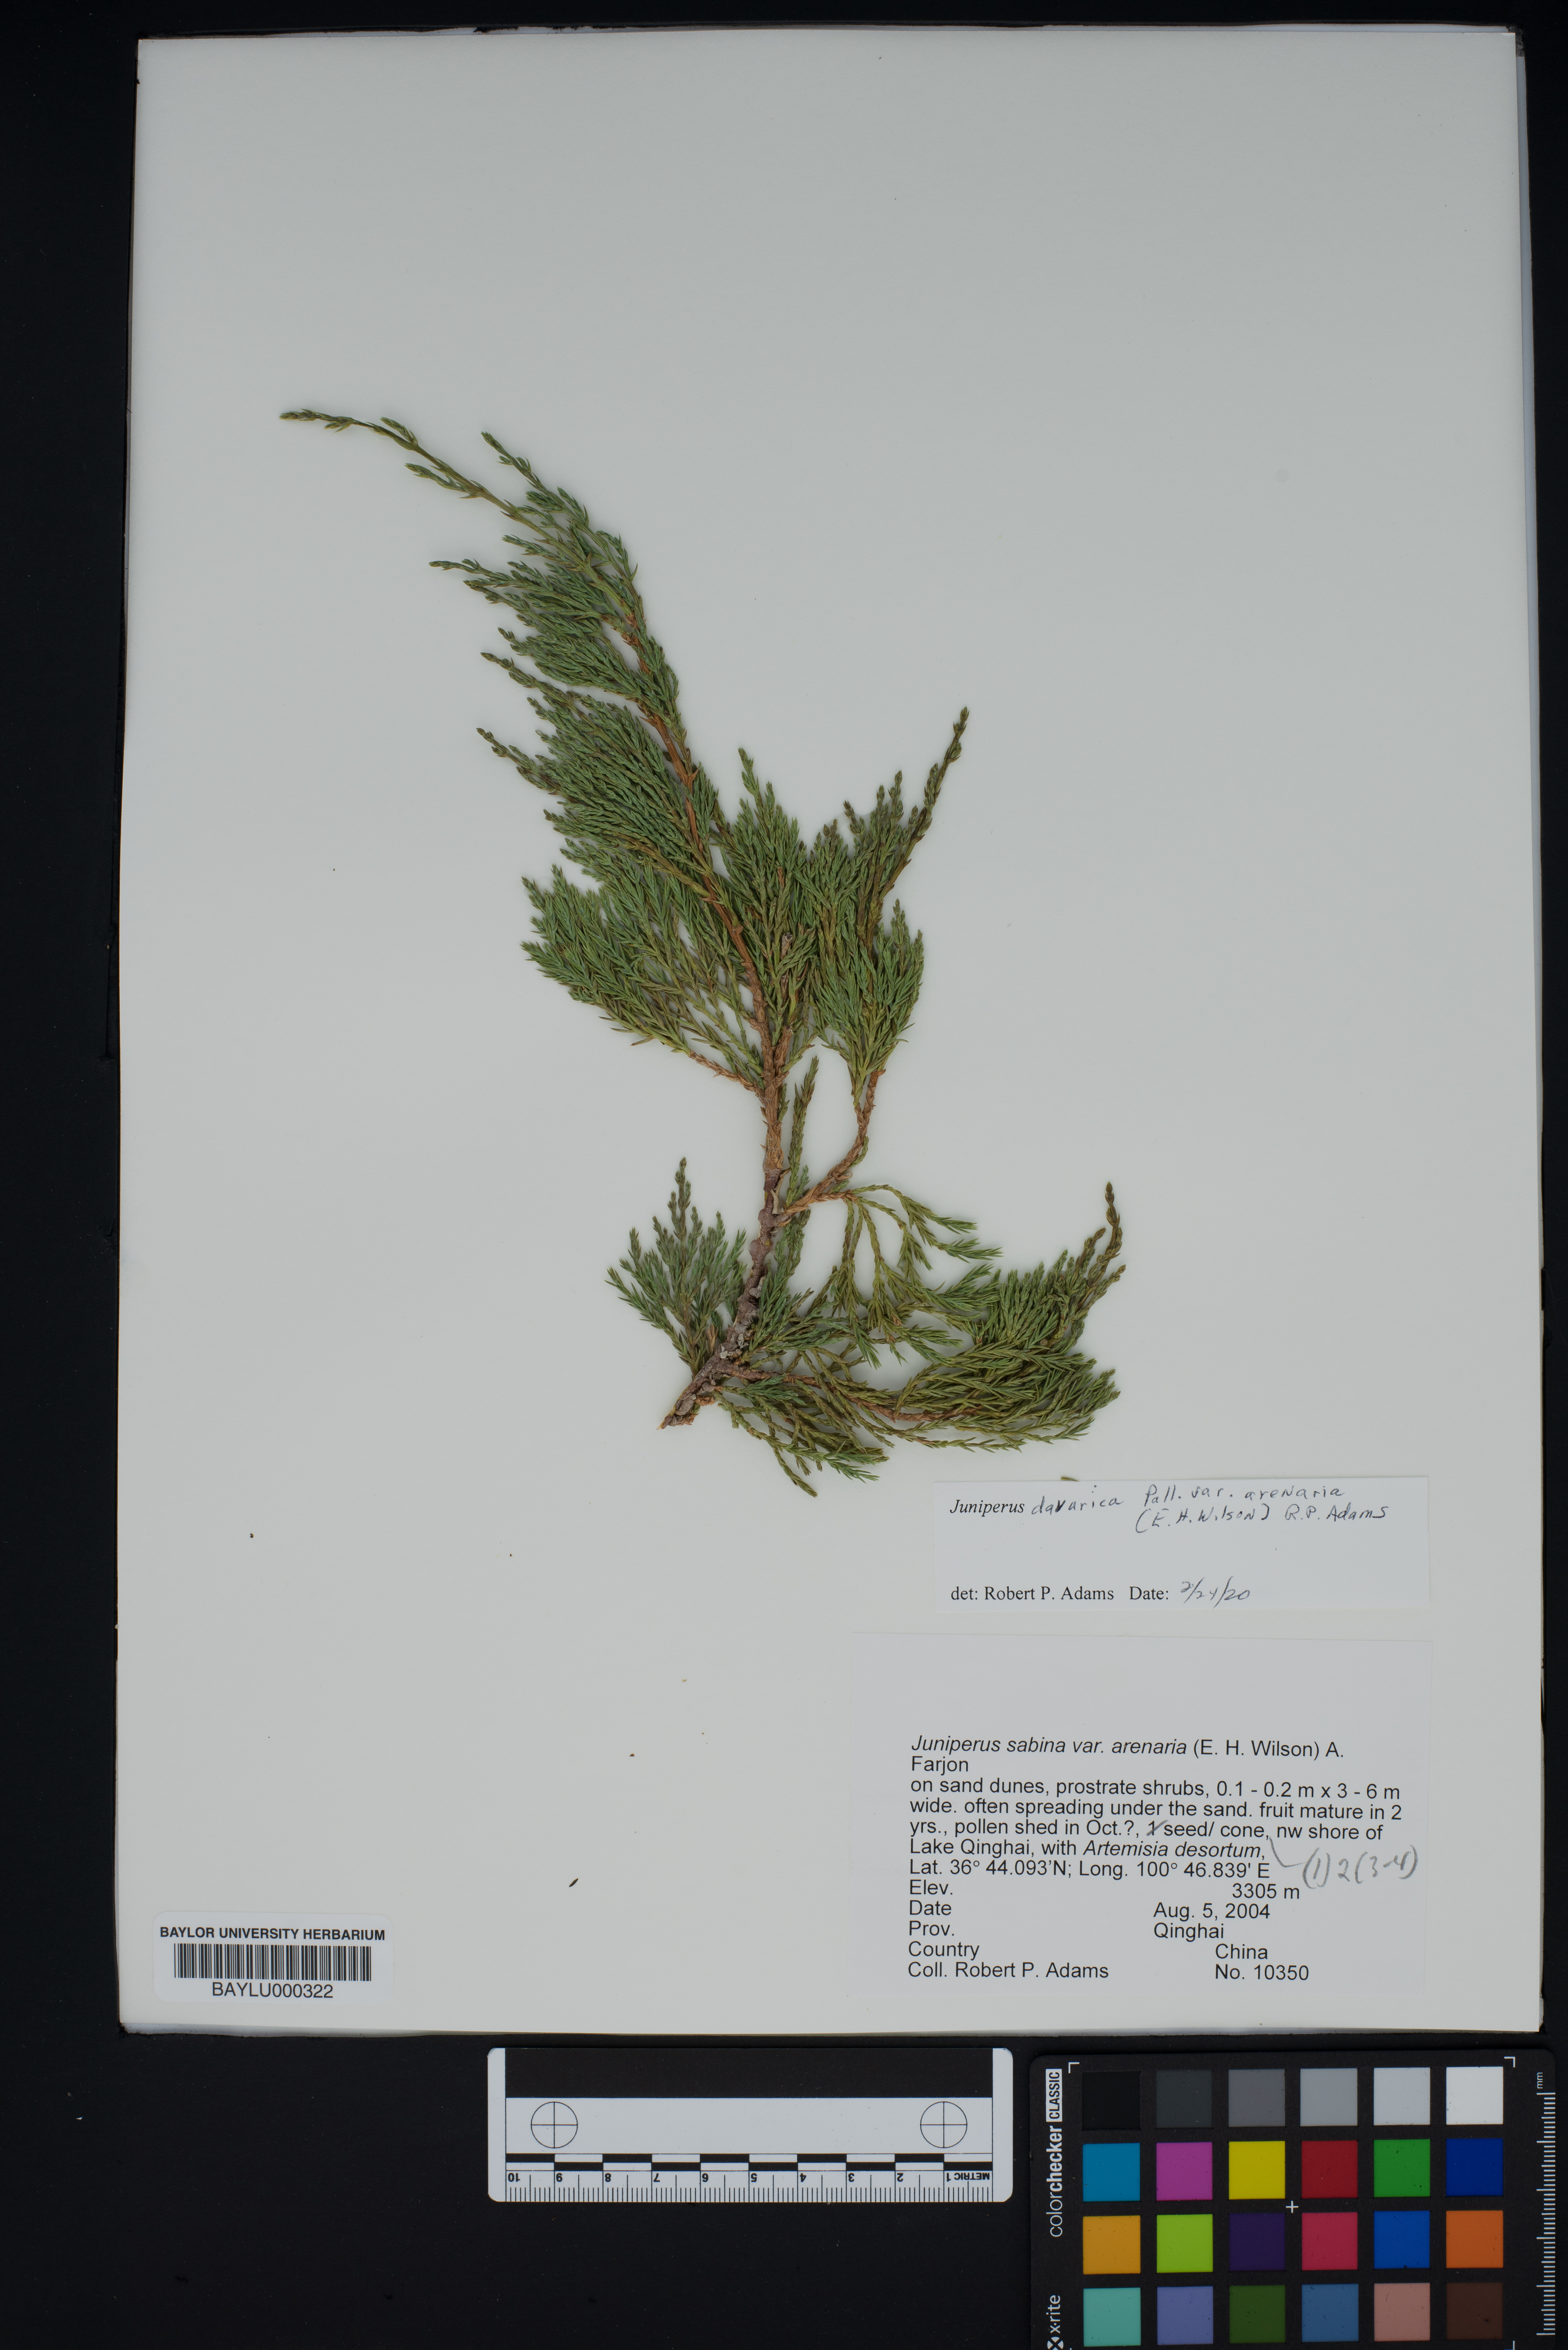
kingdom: Plantae
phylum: Tracheophyta
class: Pinopsida
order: Pinales
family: Cupressaceae
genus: Juniperus
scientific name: Juniperus sabina
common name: Savin
